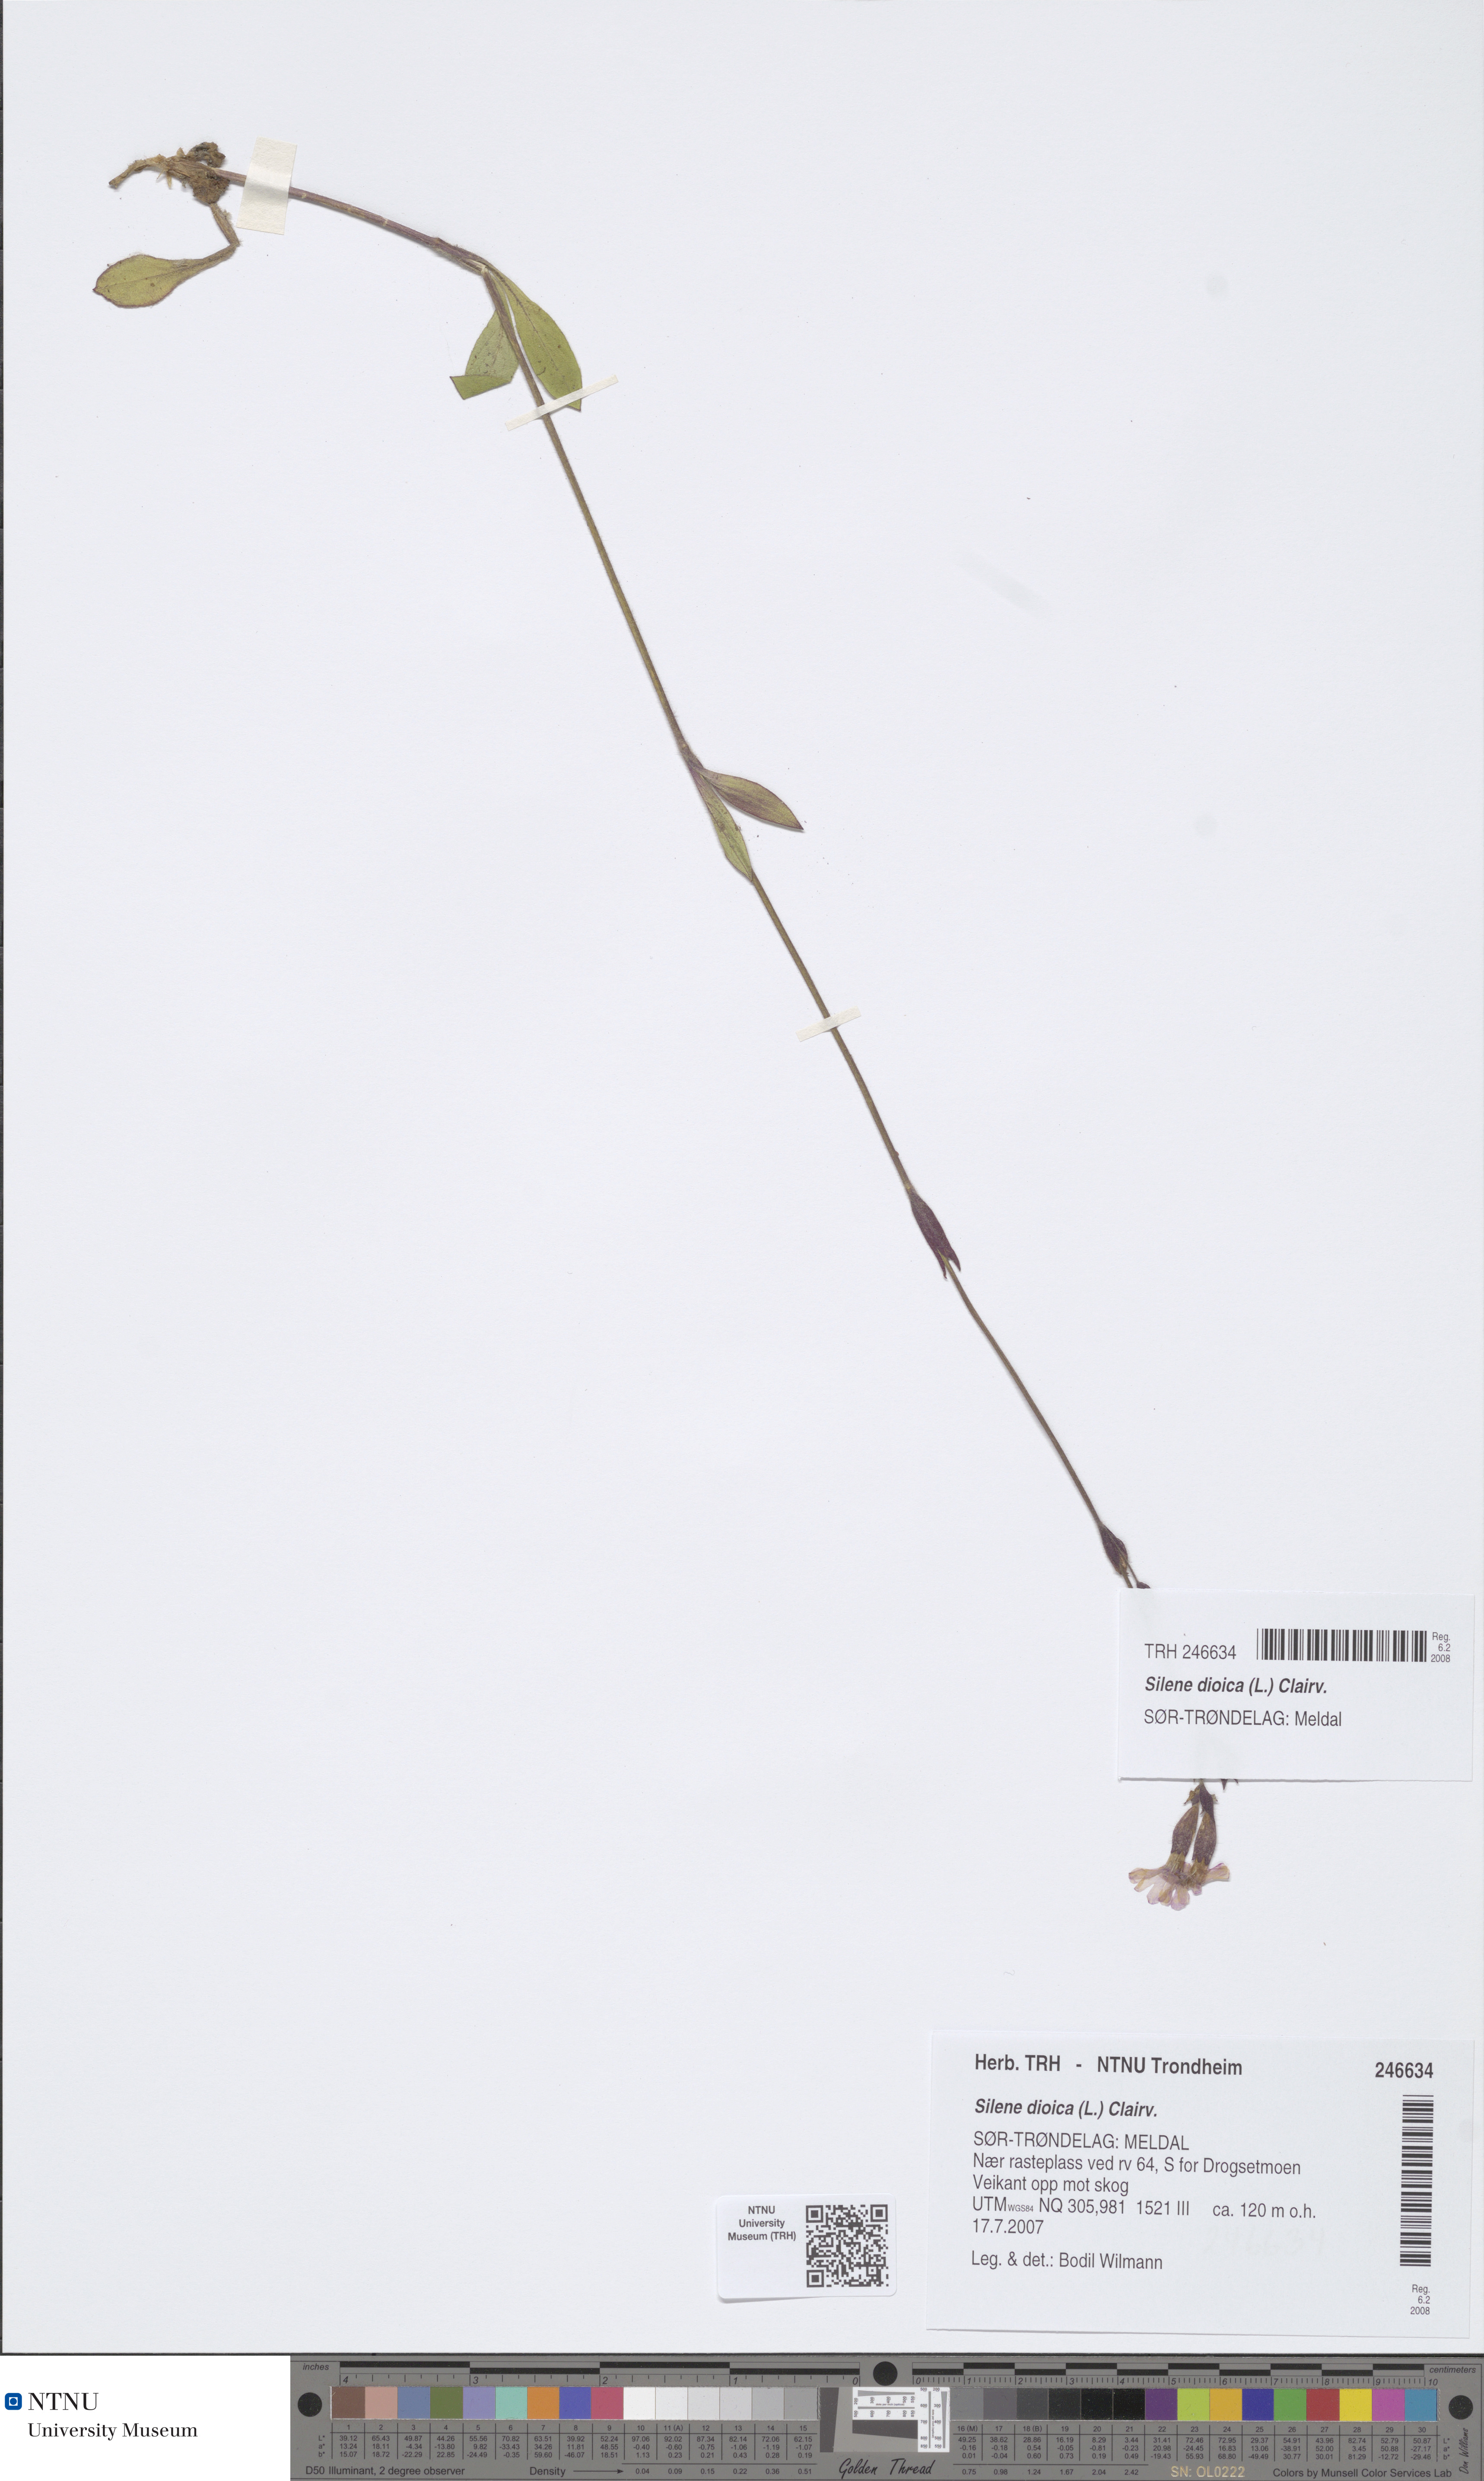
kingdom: Plantae
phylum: Tracheophyta
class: Magnoliopsida
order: Caryophyllales
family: Caryophyllaceae
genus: Silene
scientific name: Silene dioica
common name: Red campion
